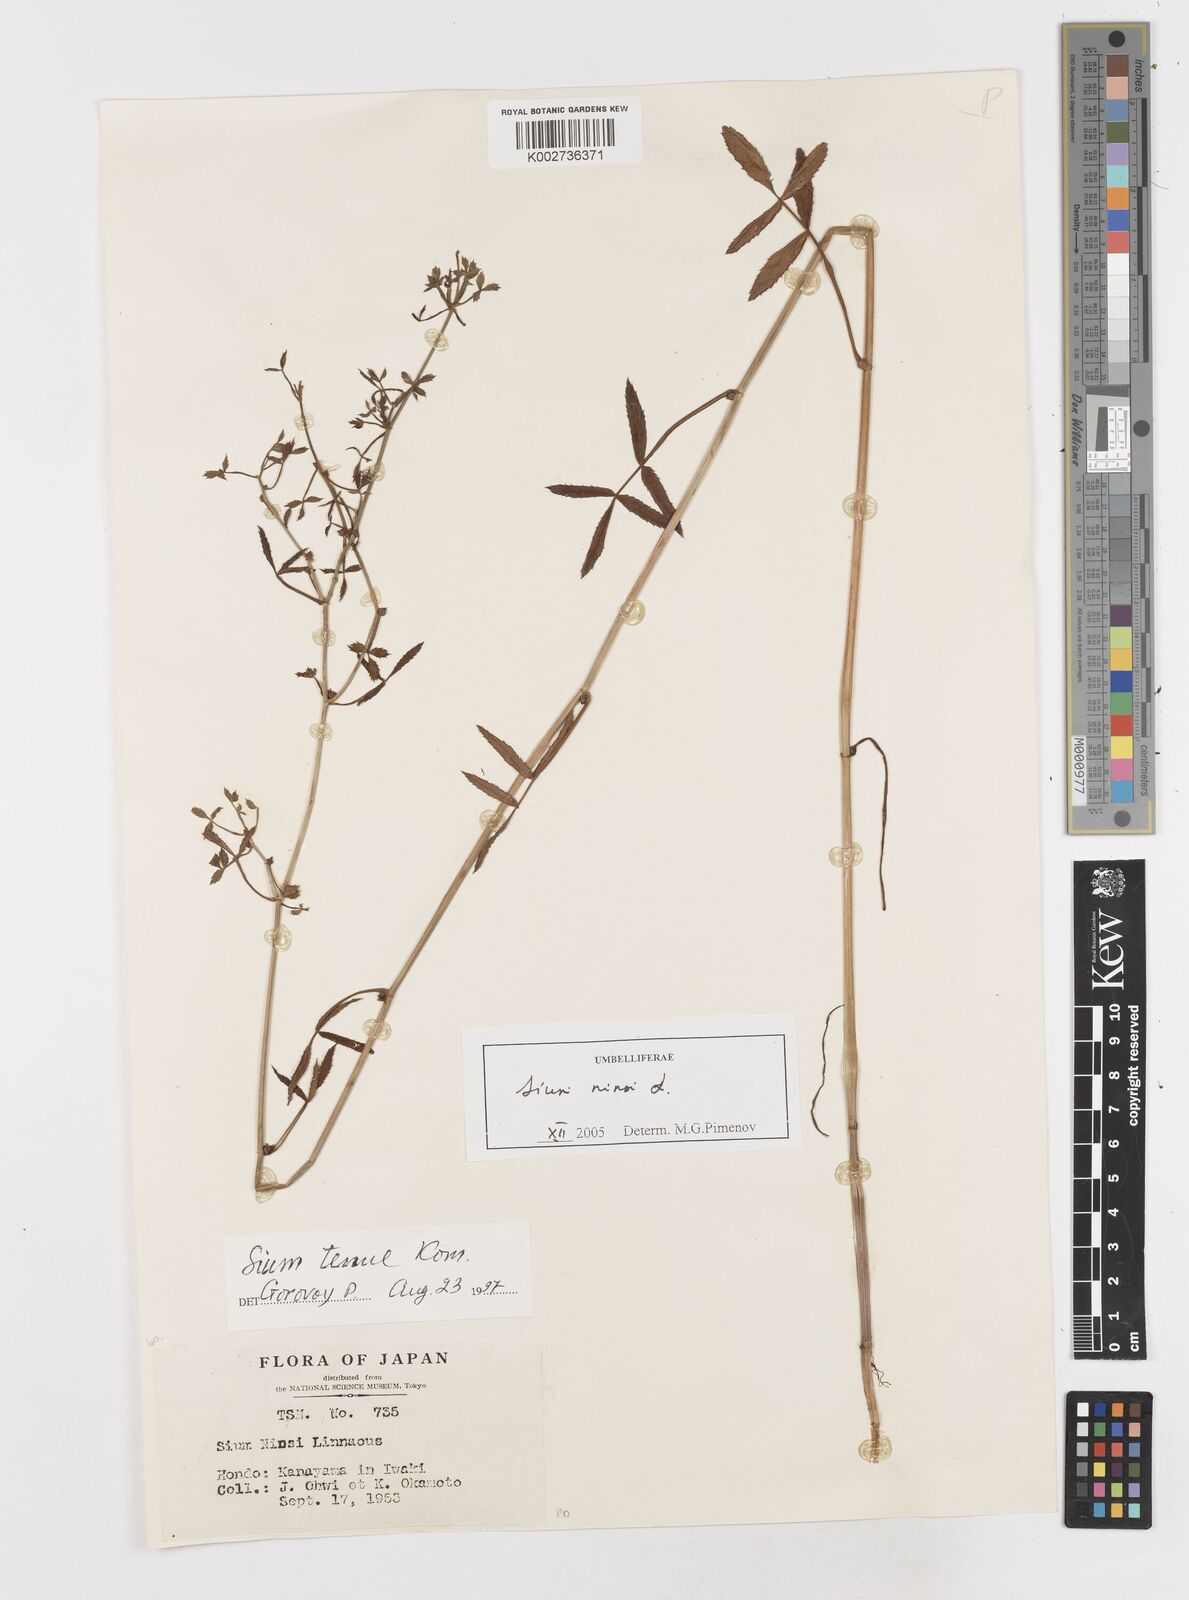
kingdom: Plantae
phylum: Tracheophyta
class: Magnoliopsida
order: Apiales
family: Apiaceae
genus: Sium
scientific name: Sium ninsi
